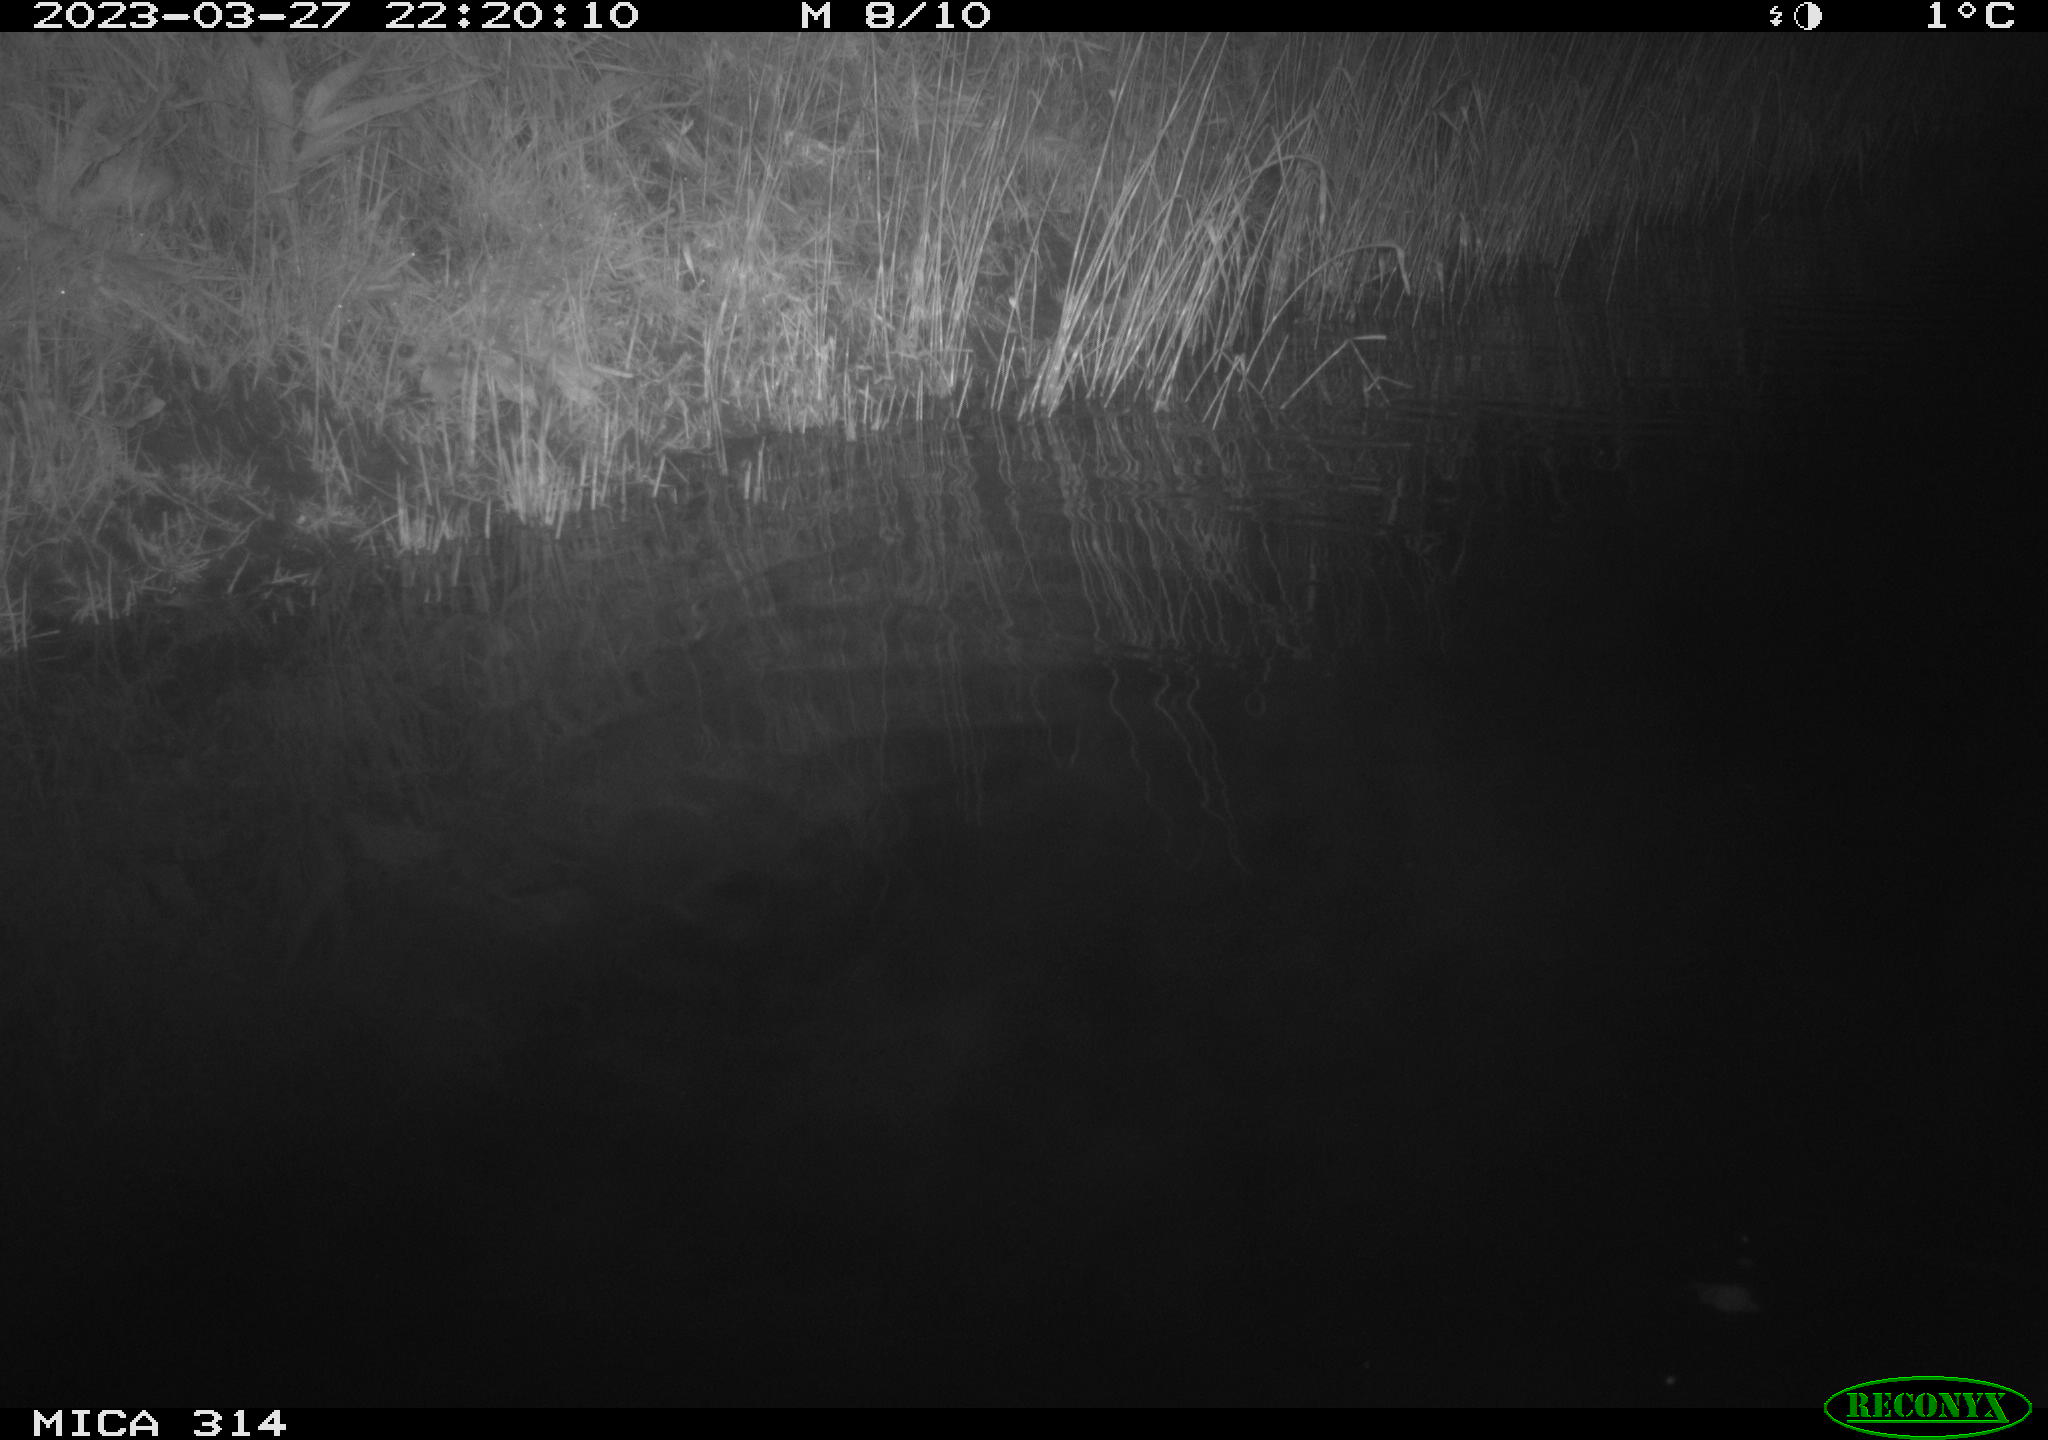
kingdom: Animalia
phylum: Chordata
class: Aves
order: Anseriformes
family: Anatidae
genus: Anas
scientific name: Anas
